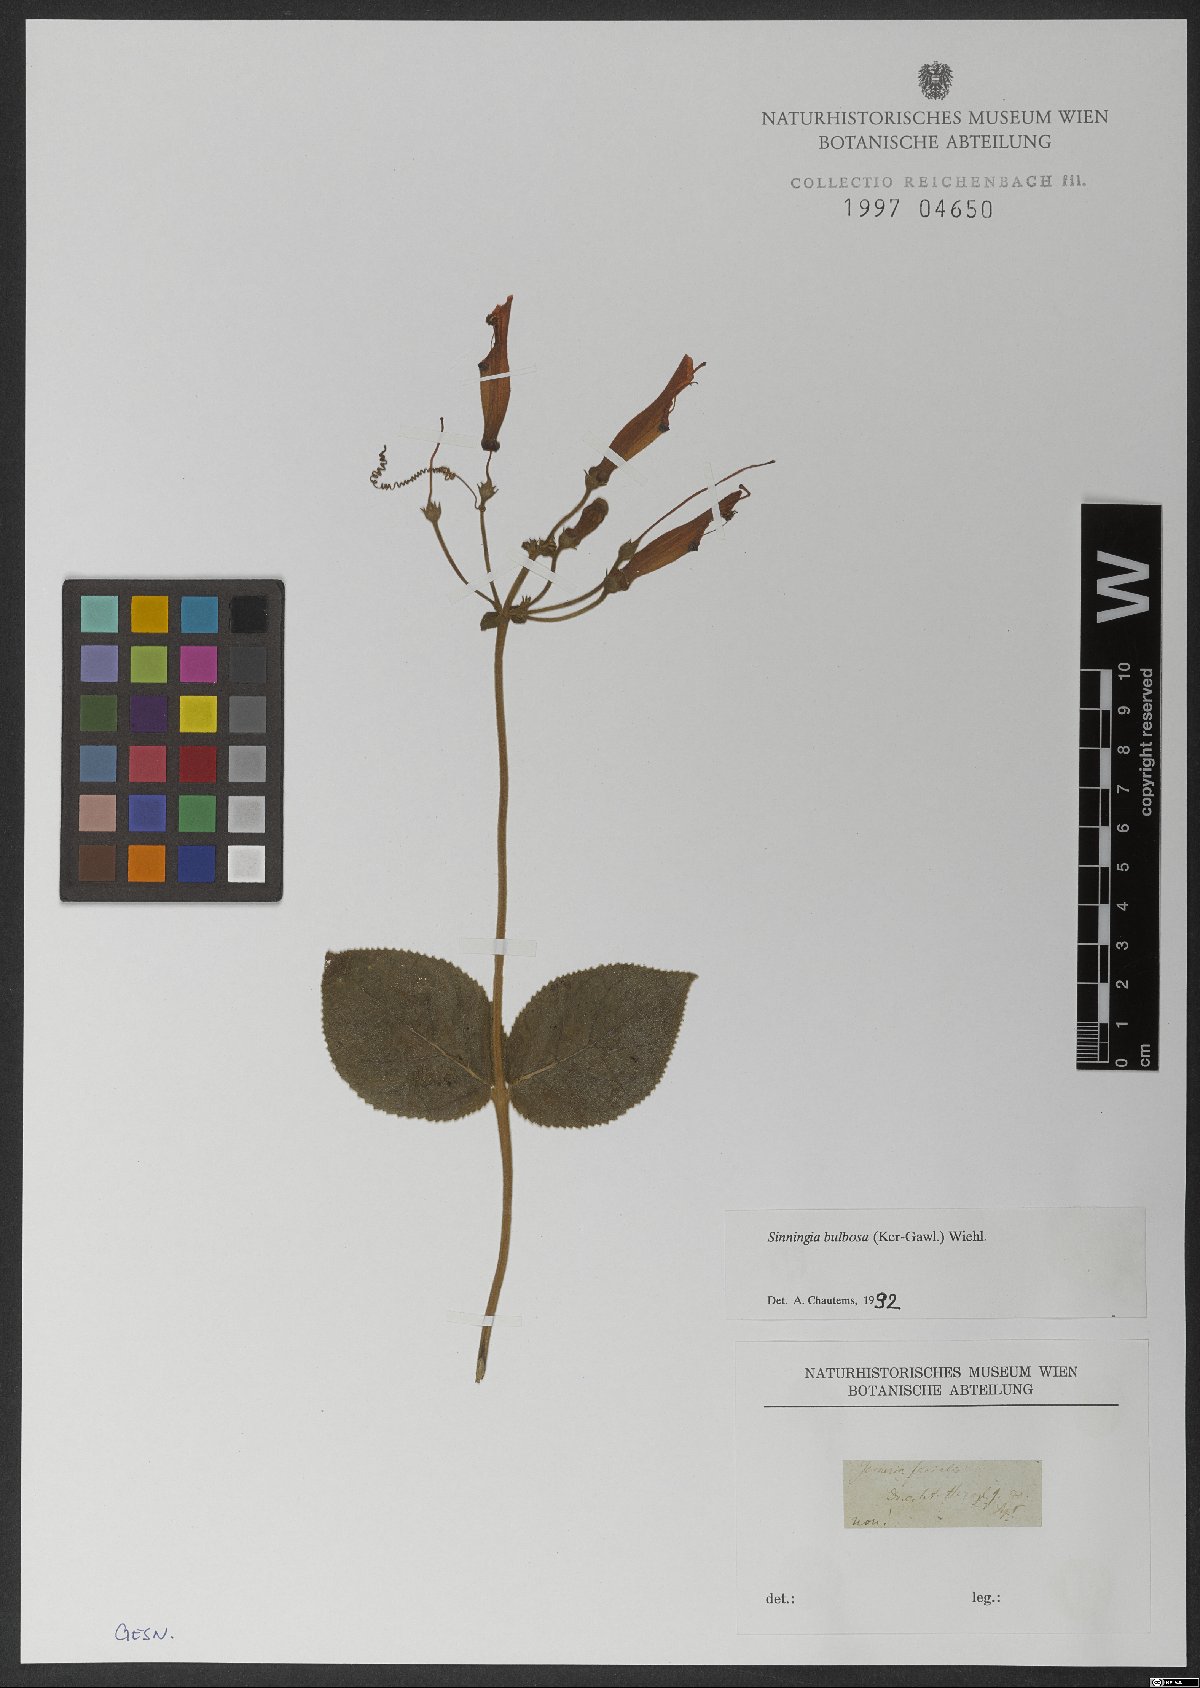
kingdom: Plantae
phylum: Tracheophyta
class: Magnoliopsida
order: Lamiales
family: Gesneriaceae
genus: Sinningia
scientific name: Sinningia bulbosa
